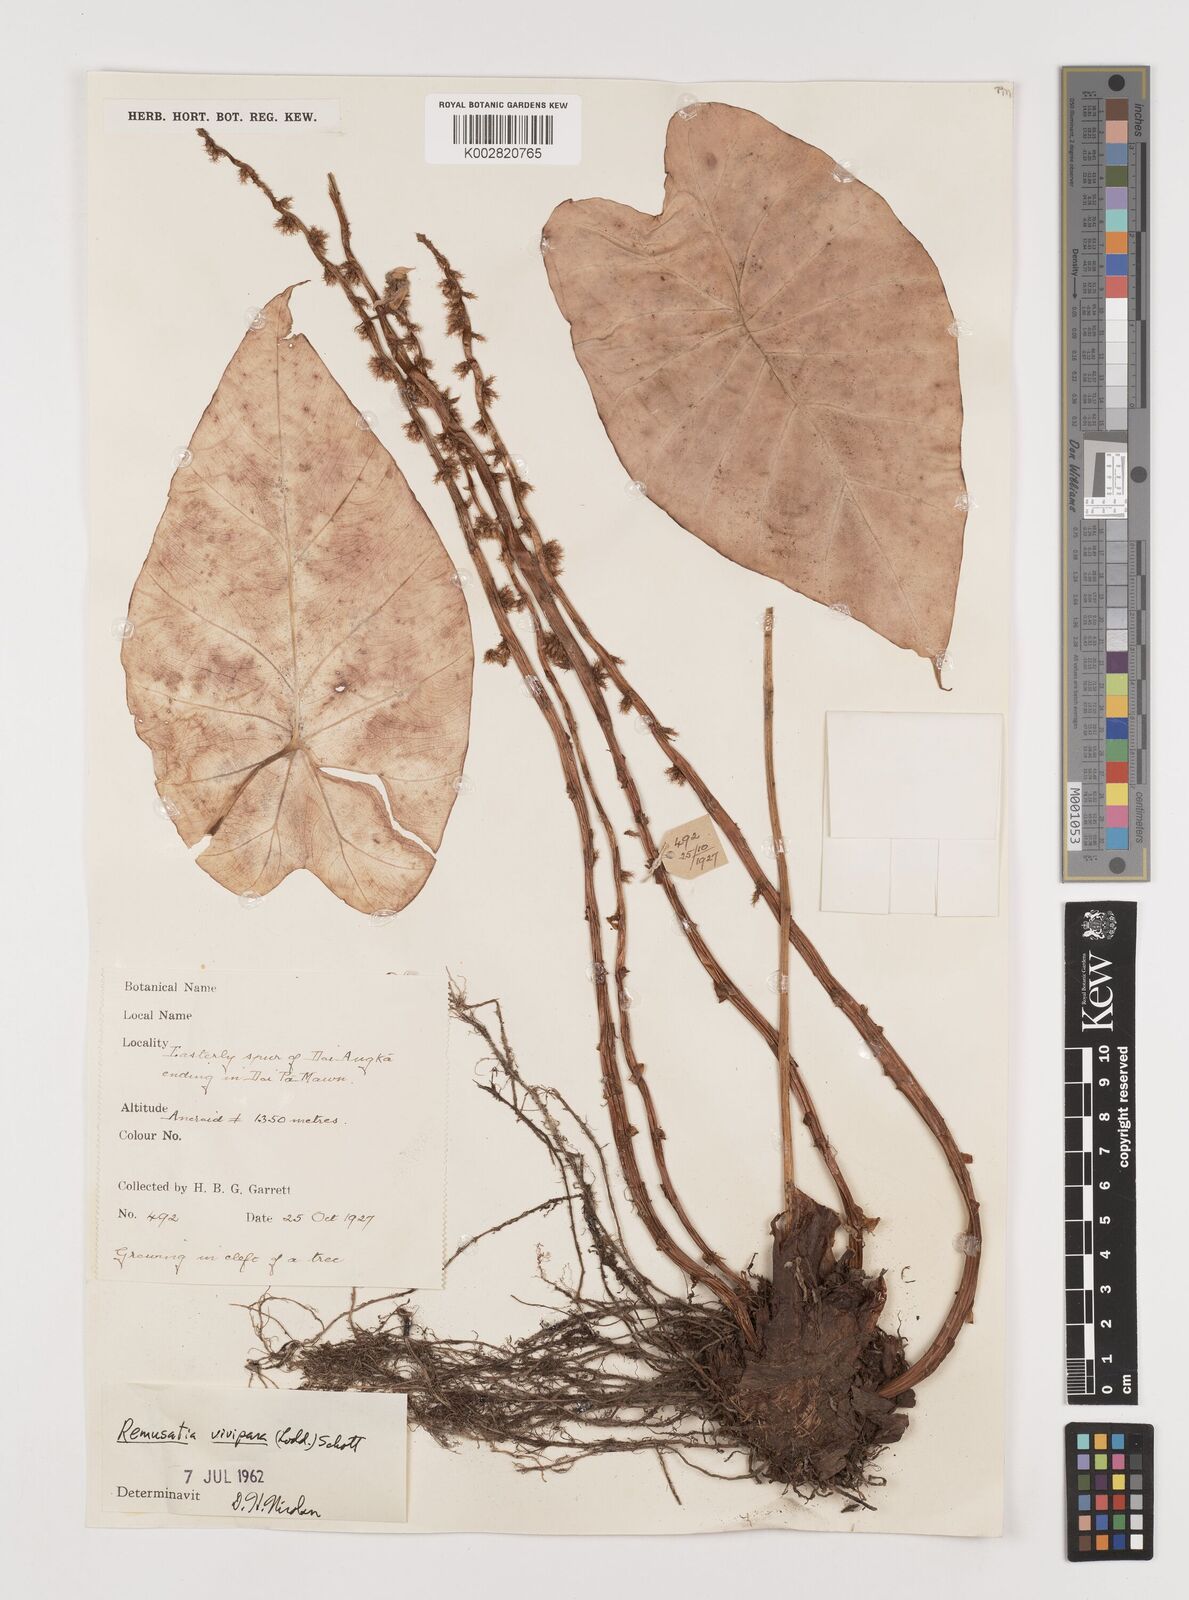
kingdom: Plantae
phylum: Tracheophyta
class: Liliopsida
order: Alismatales
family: Araceae
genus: Remusatia
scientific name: Remusatia vivipara
